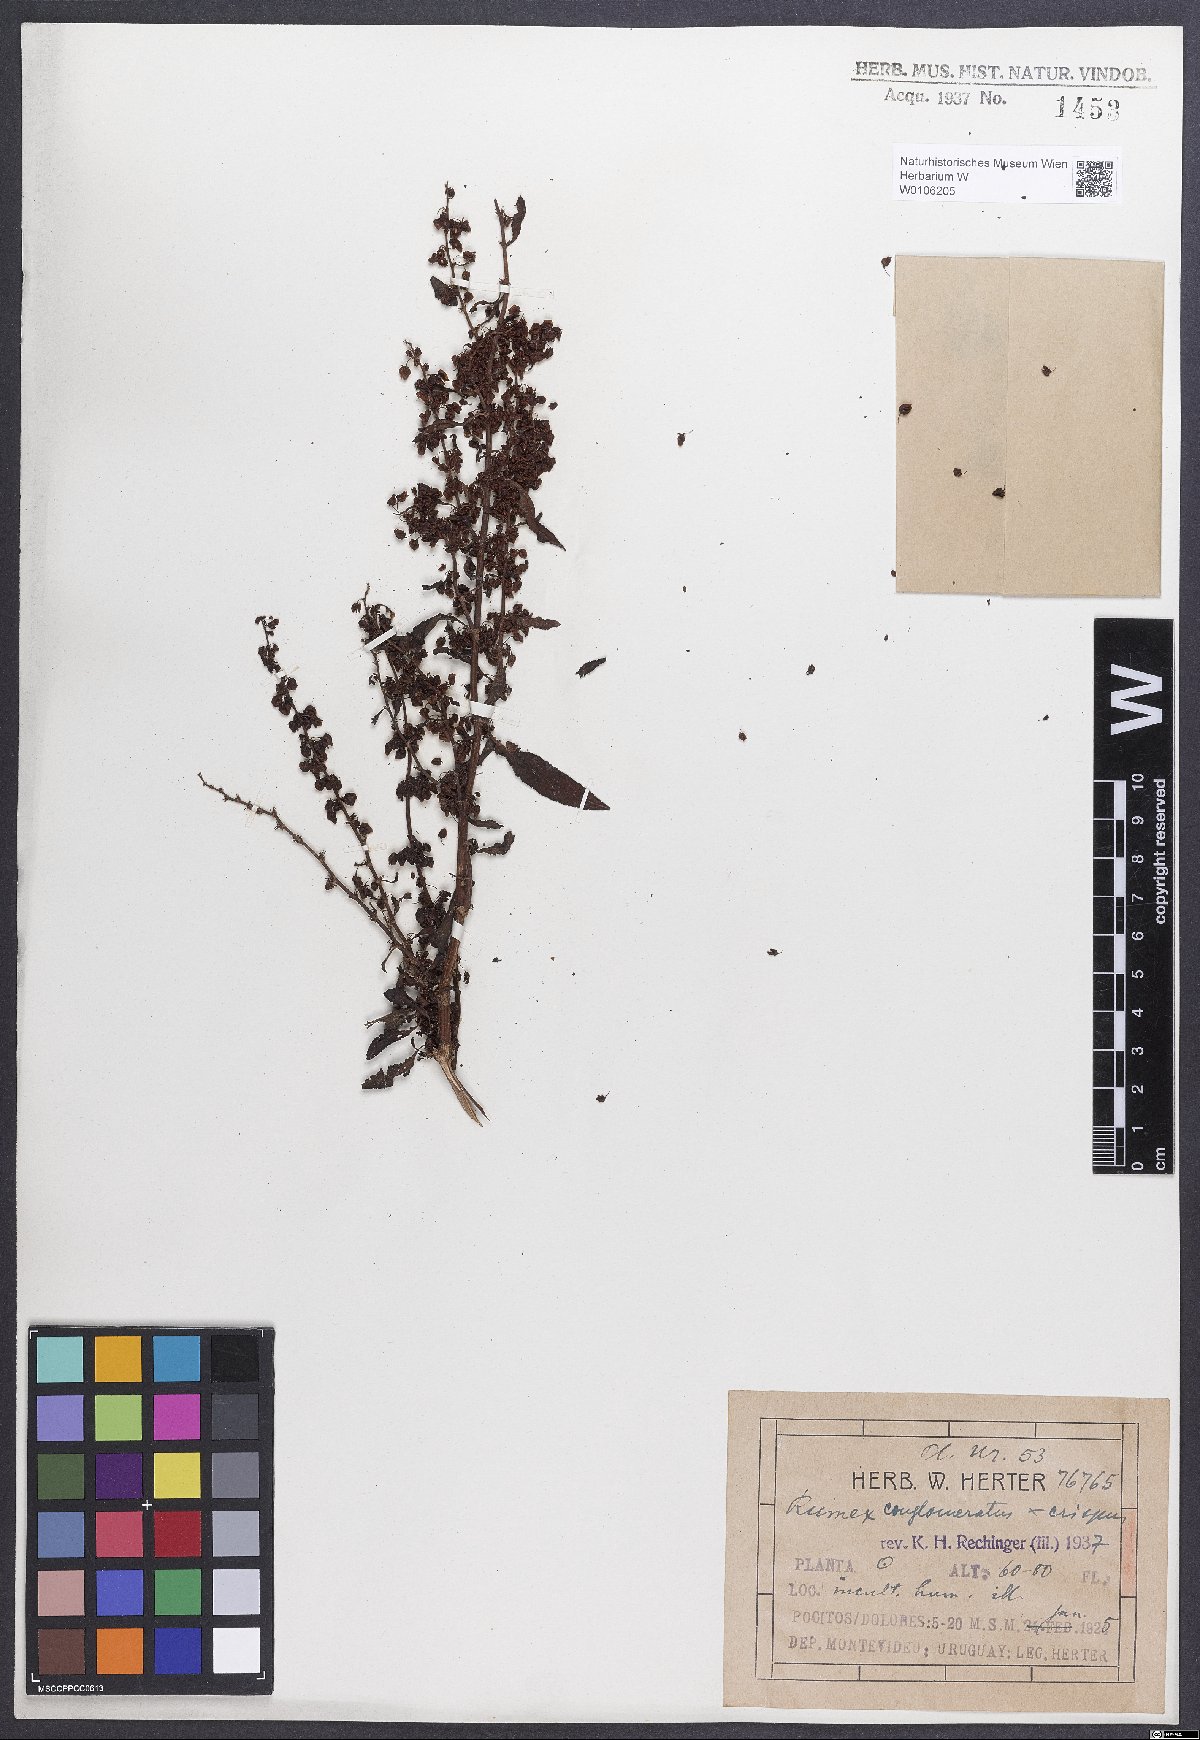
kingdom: Plantae
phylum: Tracheophyta
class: Magnoliopsida
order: Caryophyllales
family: Polygonaceae
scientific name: Polygonaceae
